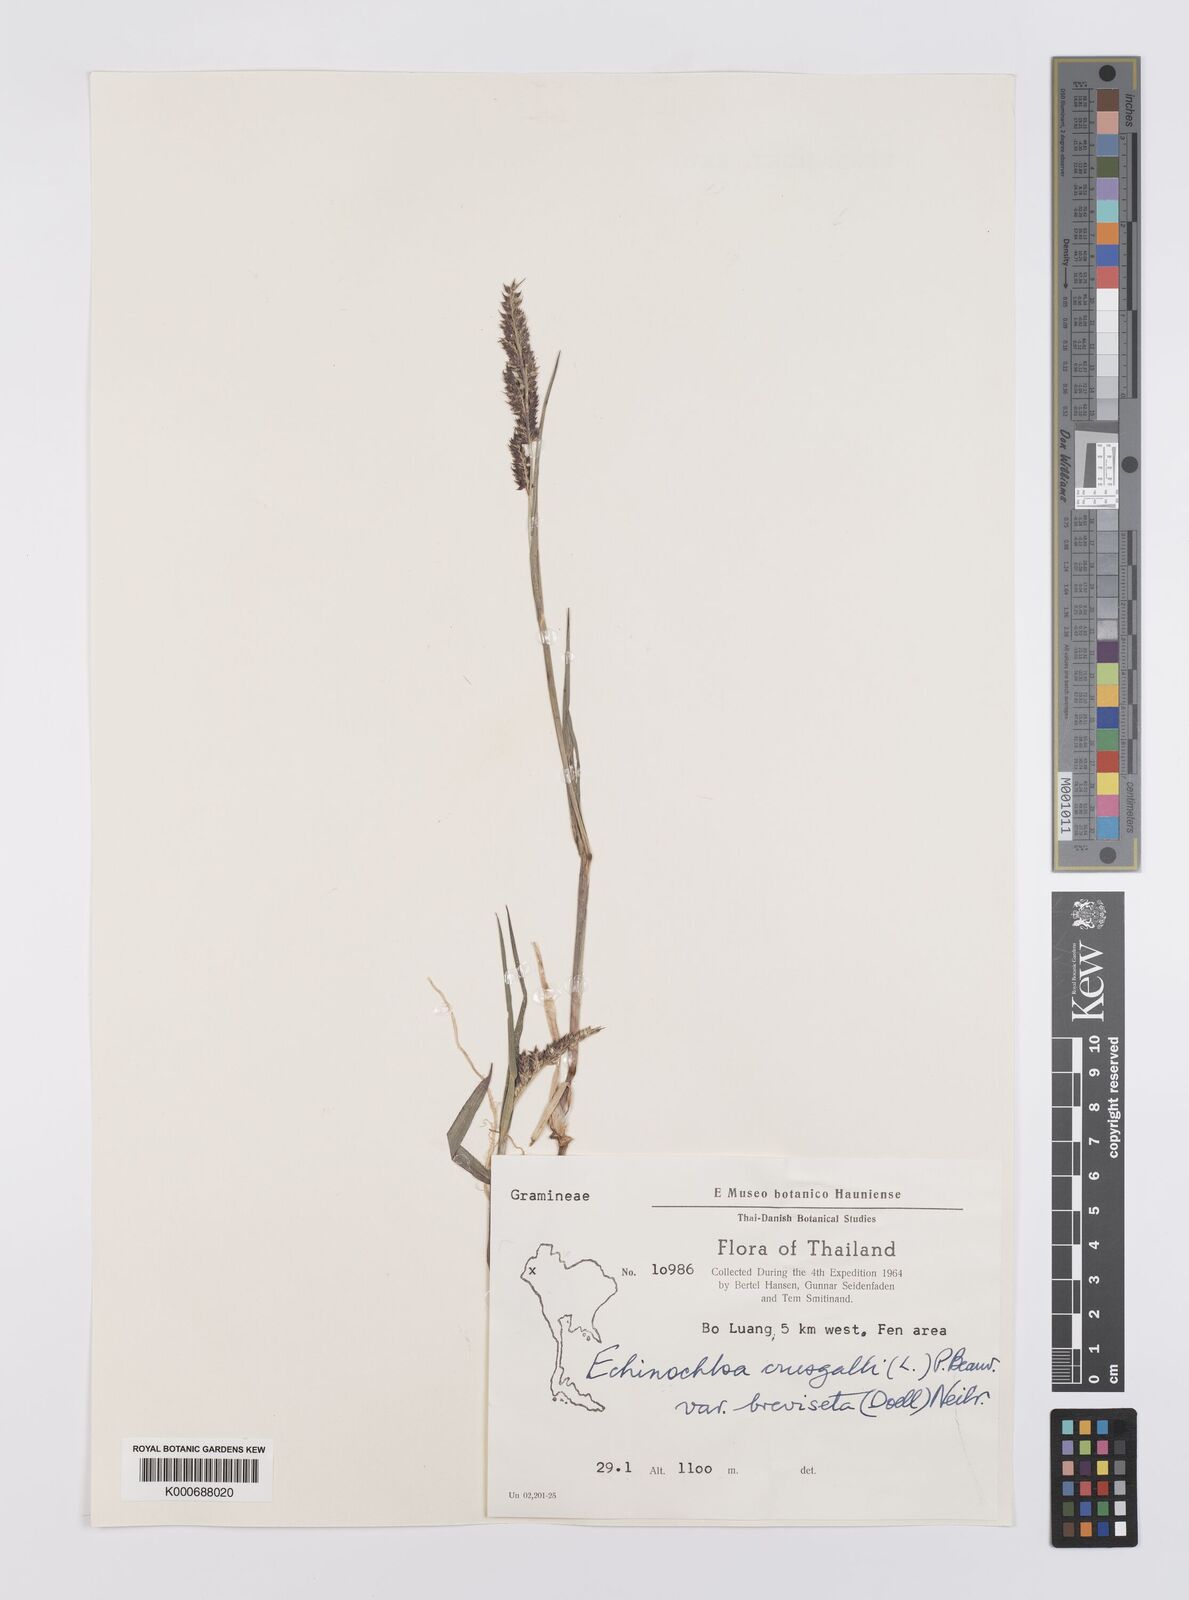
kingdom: Plantae
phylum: Tracheophyta
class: Liliopsida
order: Poales
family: Poaceae
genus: Echinochloa
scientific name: Echinochloa crus-galli
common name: Cockspur
